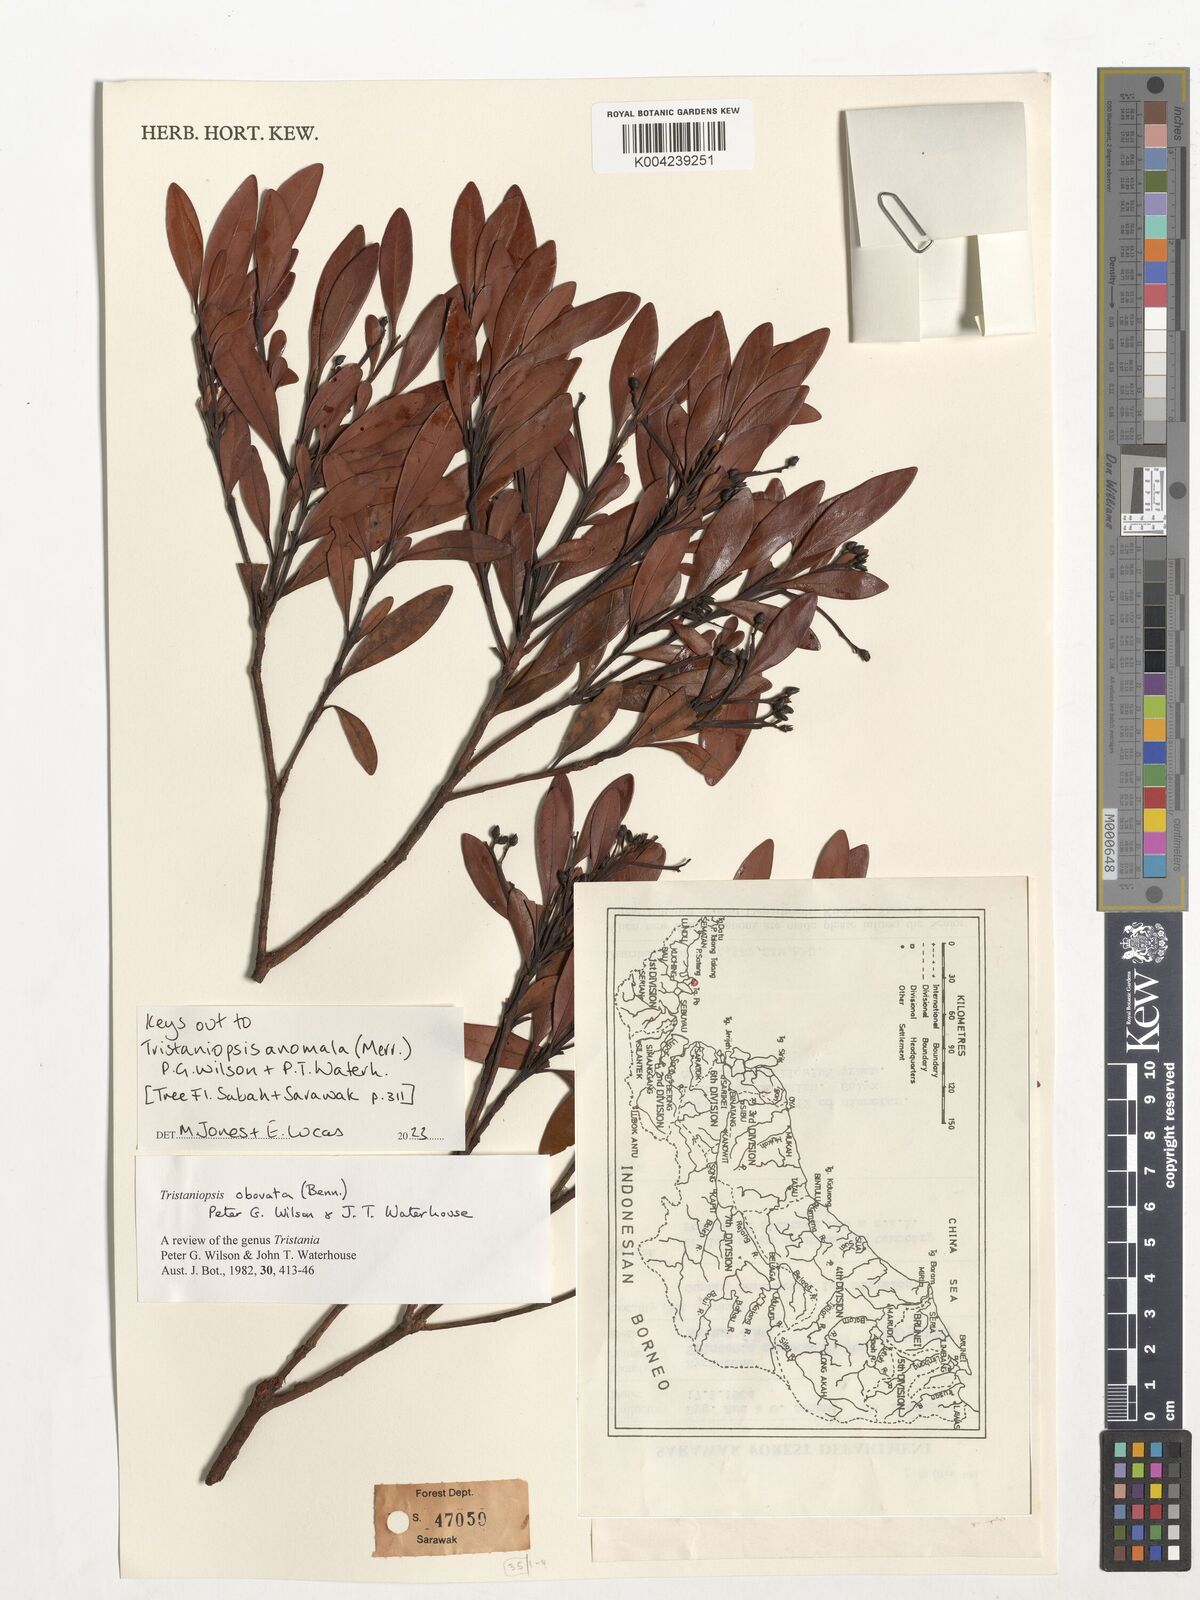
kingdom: Plantae
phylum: Tracheophyta
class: Magnoliopsida
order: Myrtales
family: Myrtaceae
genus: Tristaniopsis
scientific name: Tristaniopsis anomala
